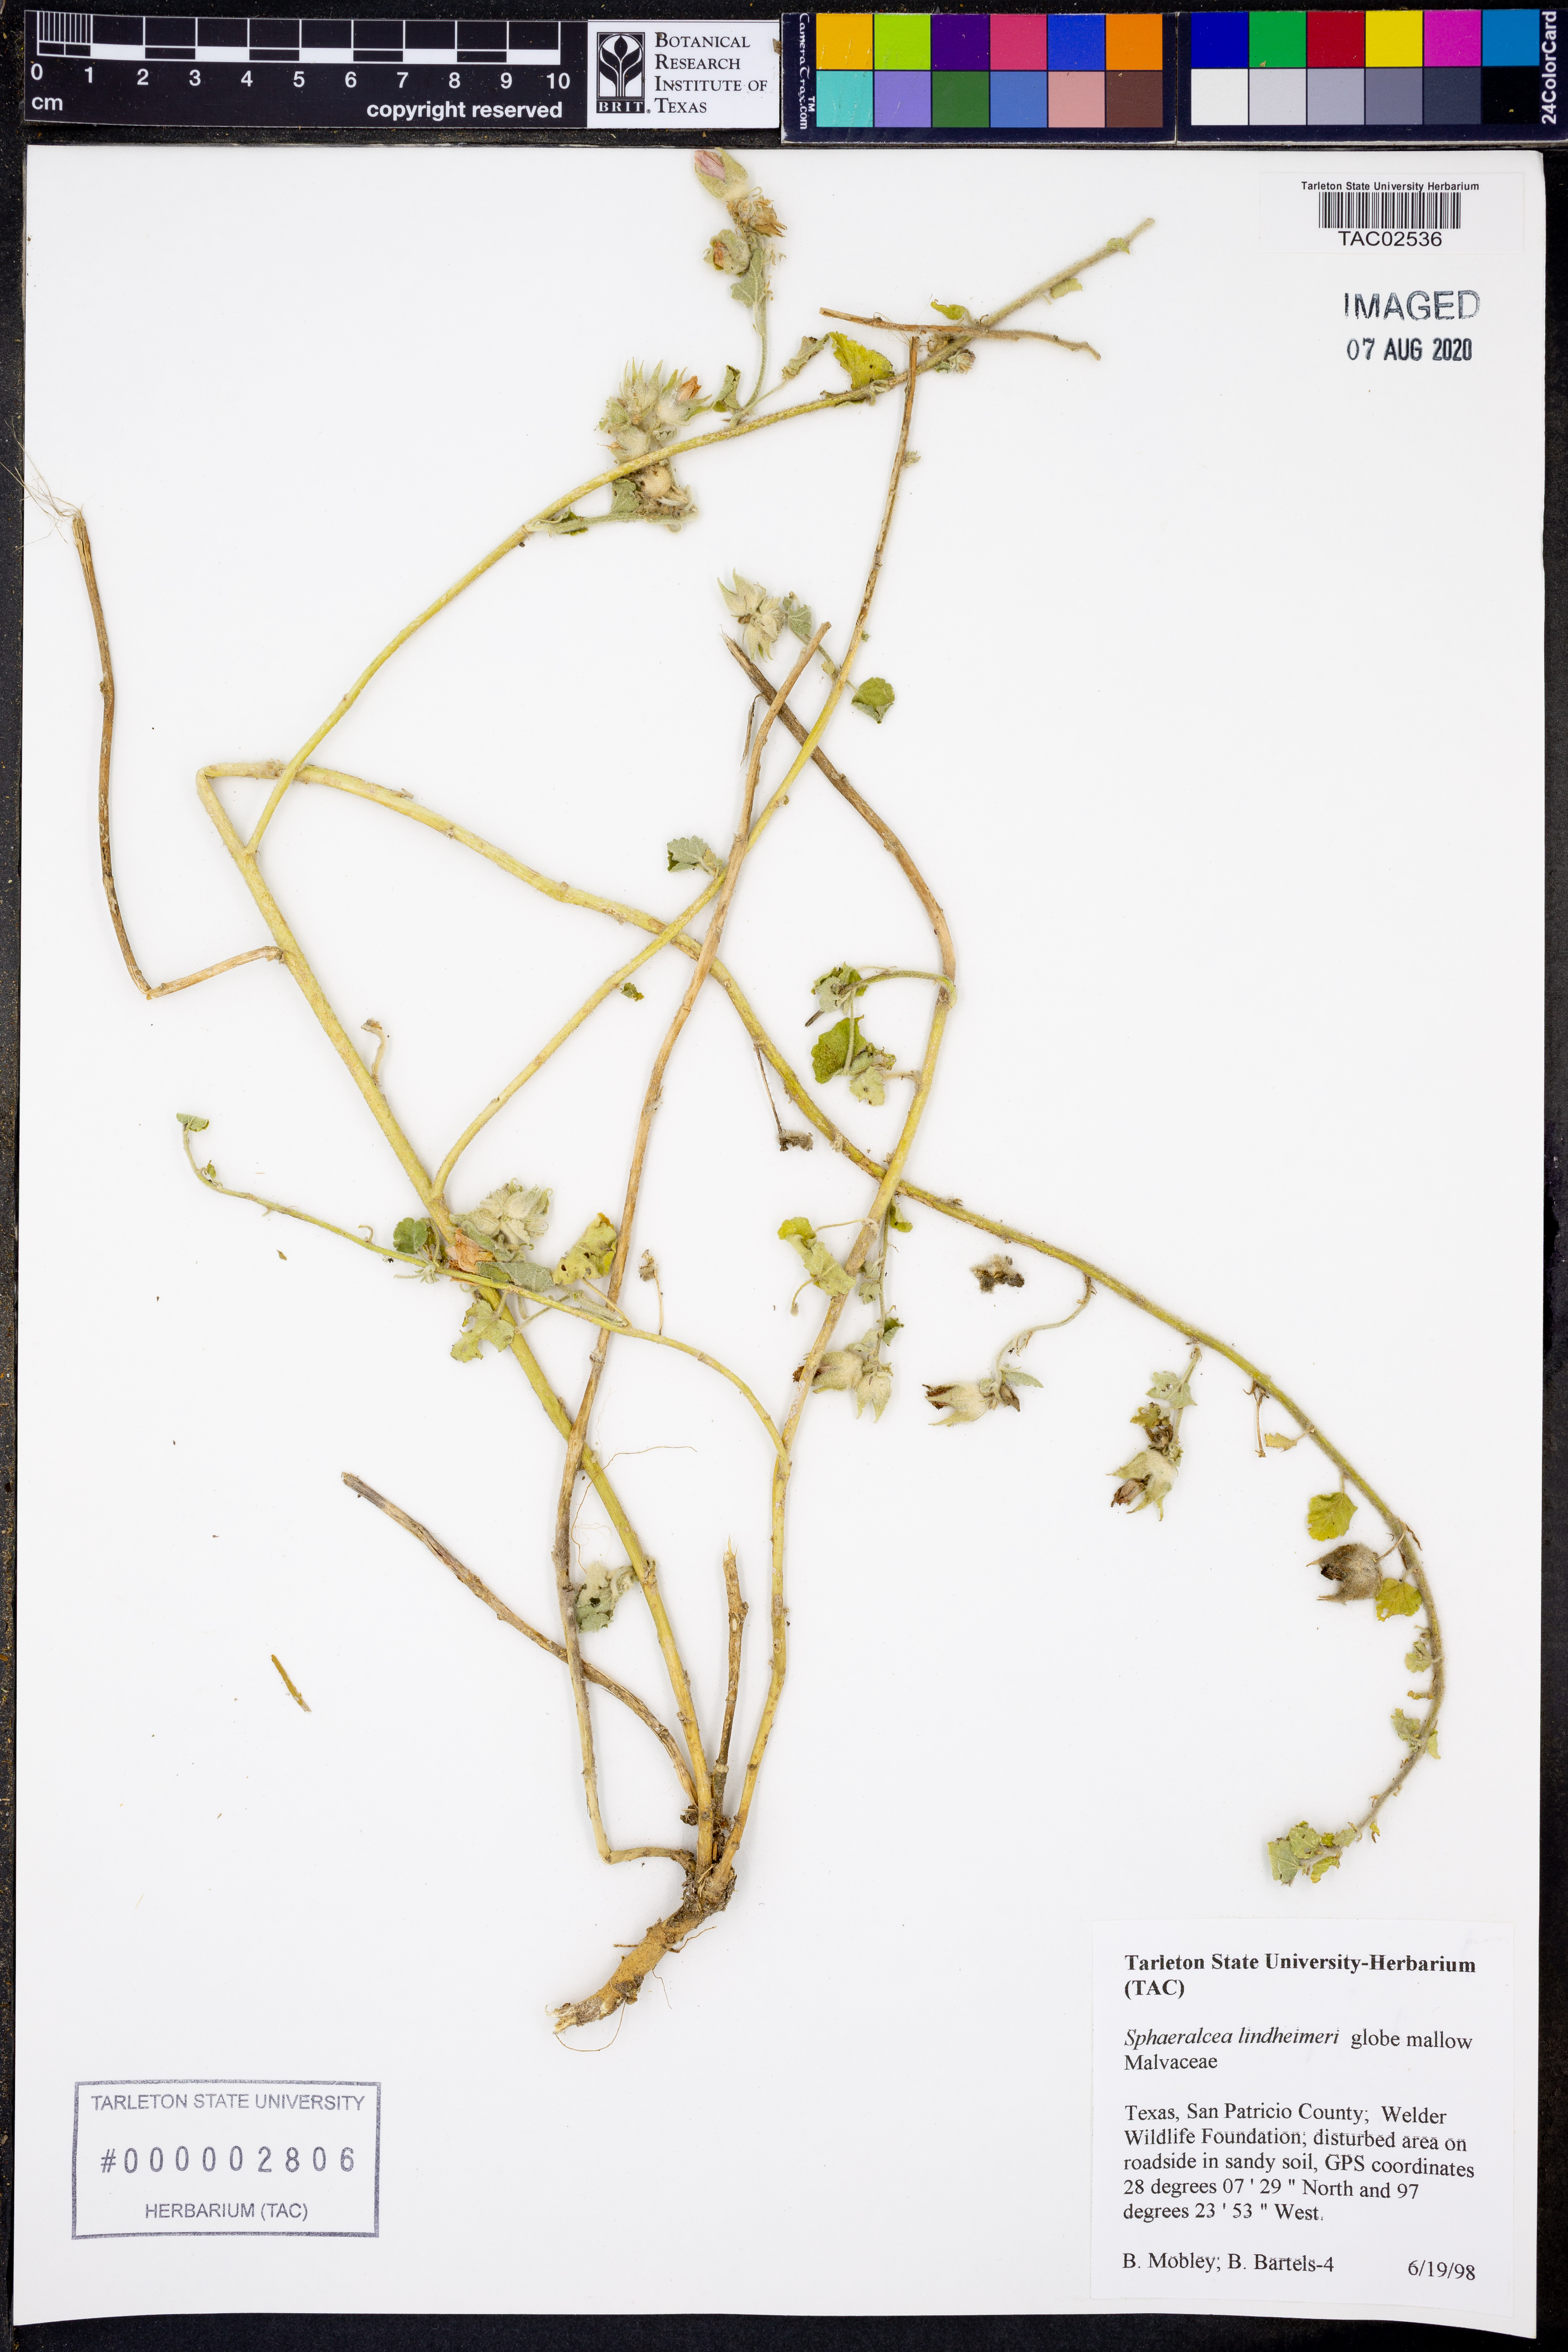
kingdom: Plantae
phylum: Tracheophyta
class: Magnoliopsida
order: Malvales
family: Malvaceae
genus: Sphaeralcea
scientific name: Sphaeralcea lindheimeri
